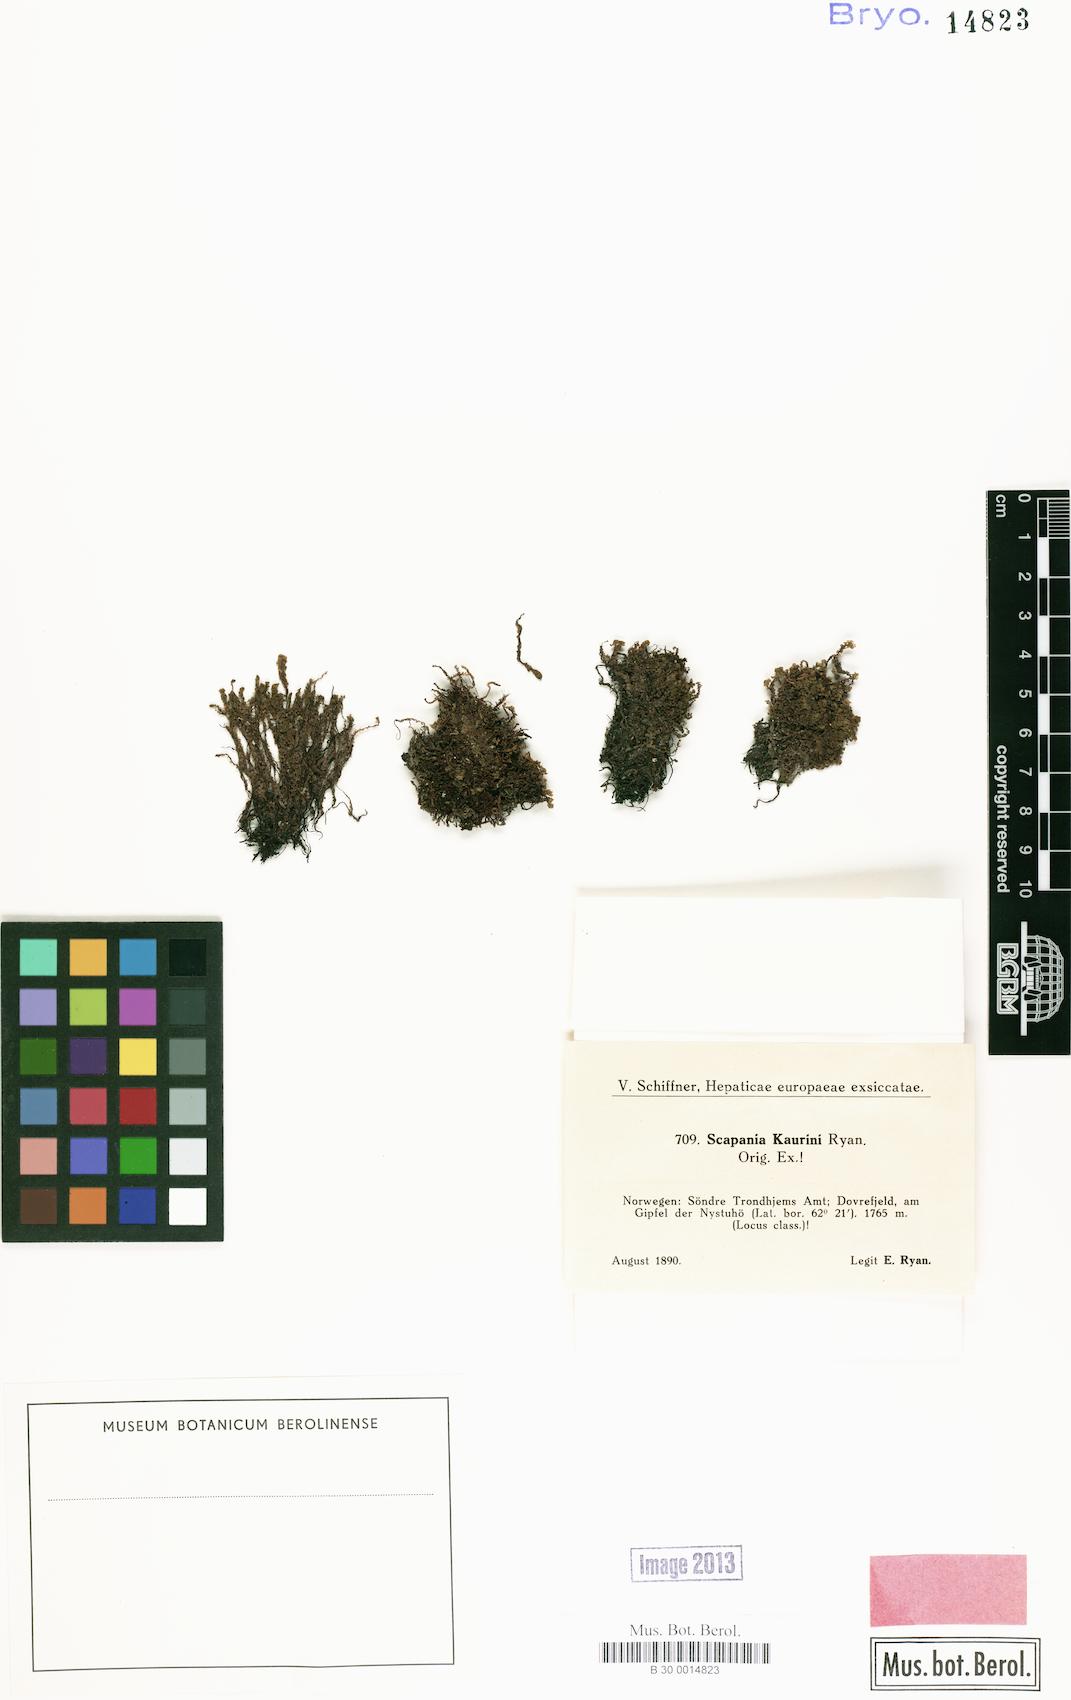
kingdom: Plantae
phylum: Marchantiophyta
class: Jungermanniopsida
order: Jungermanniales
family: Scapaniaceae
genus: Scapania
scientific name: Scapania kaurinii
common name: Kaurin s earwort
